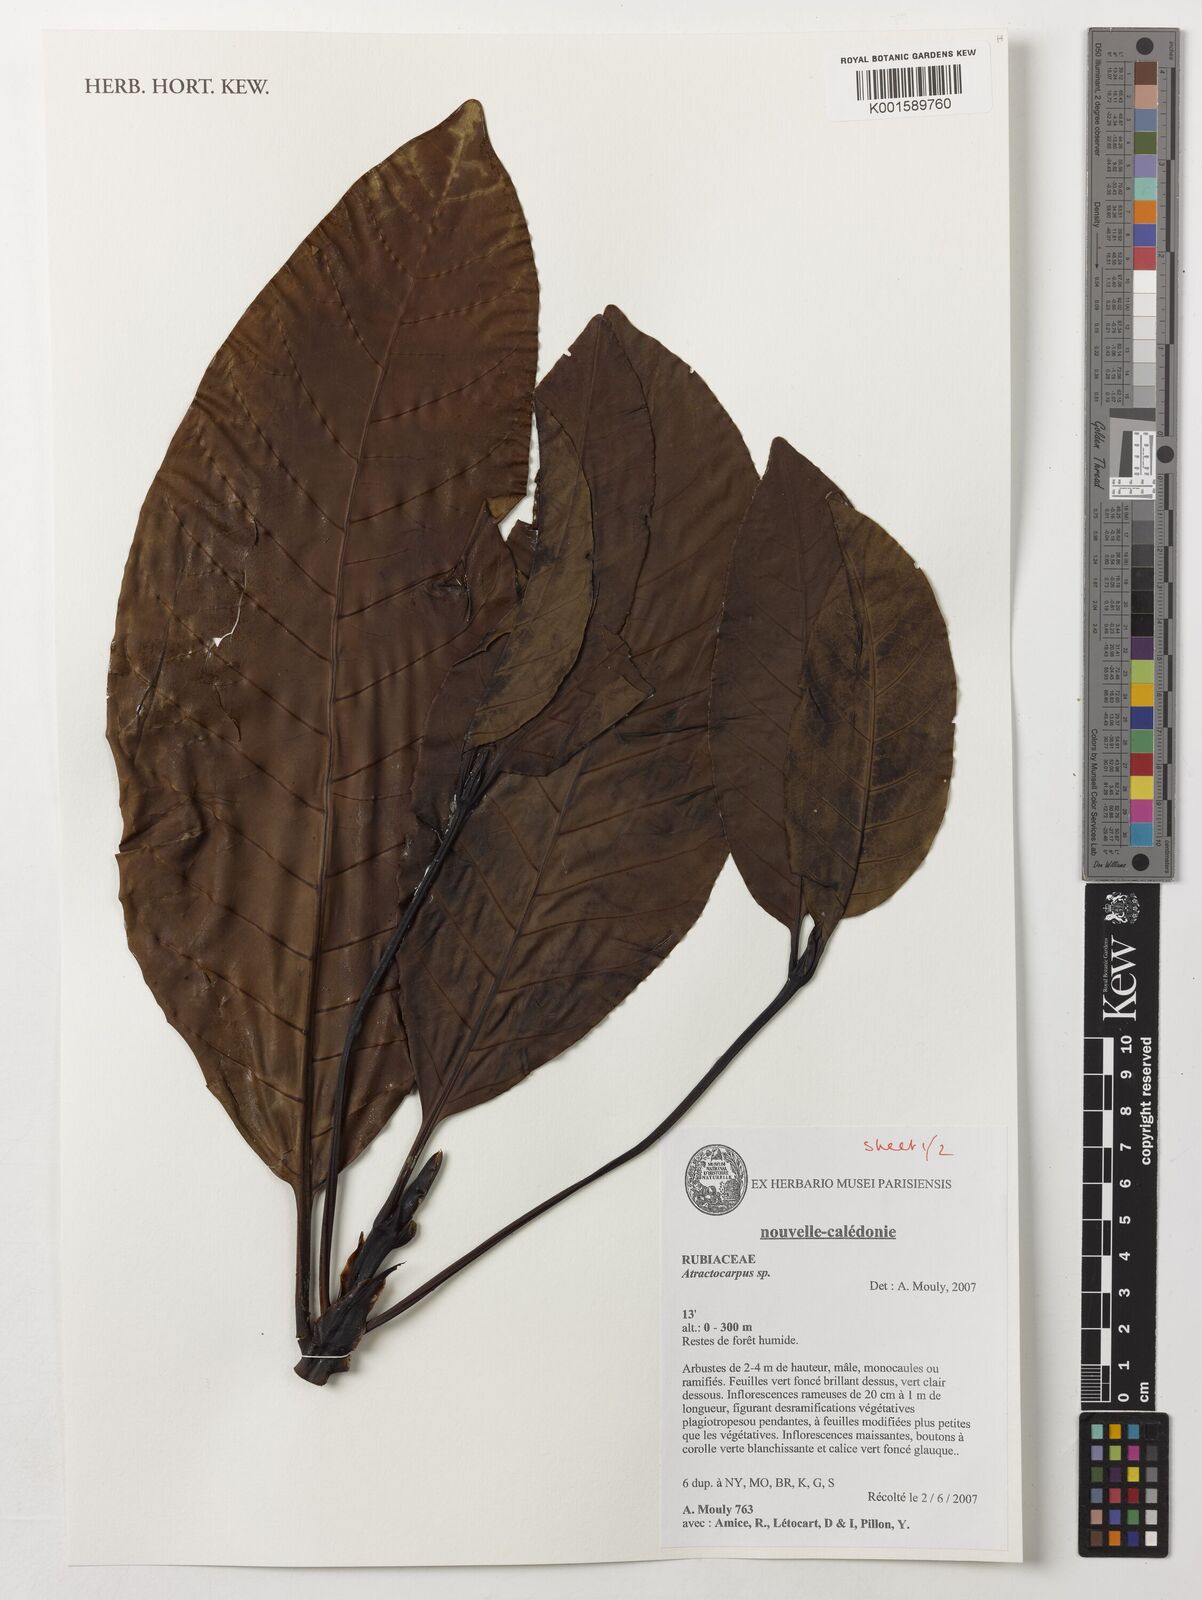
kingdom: Plantae
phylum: Tracheophyta
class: Magnoliopsida
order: Gentianales
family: Rubiaceae
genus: Atractocarpus
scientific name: Atractocarpus
